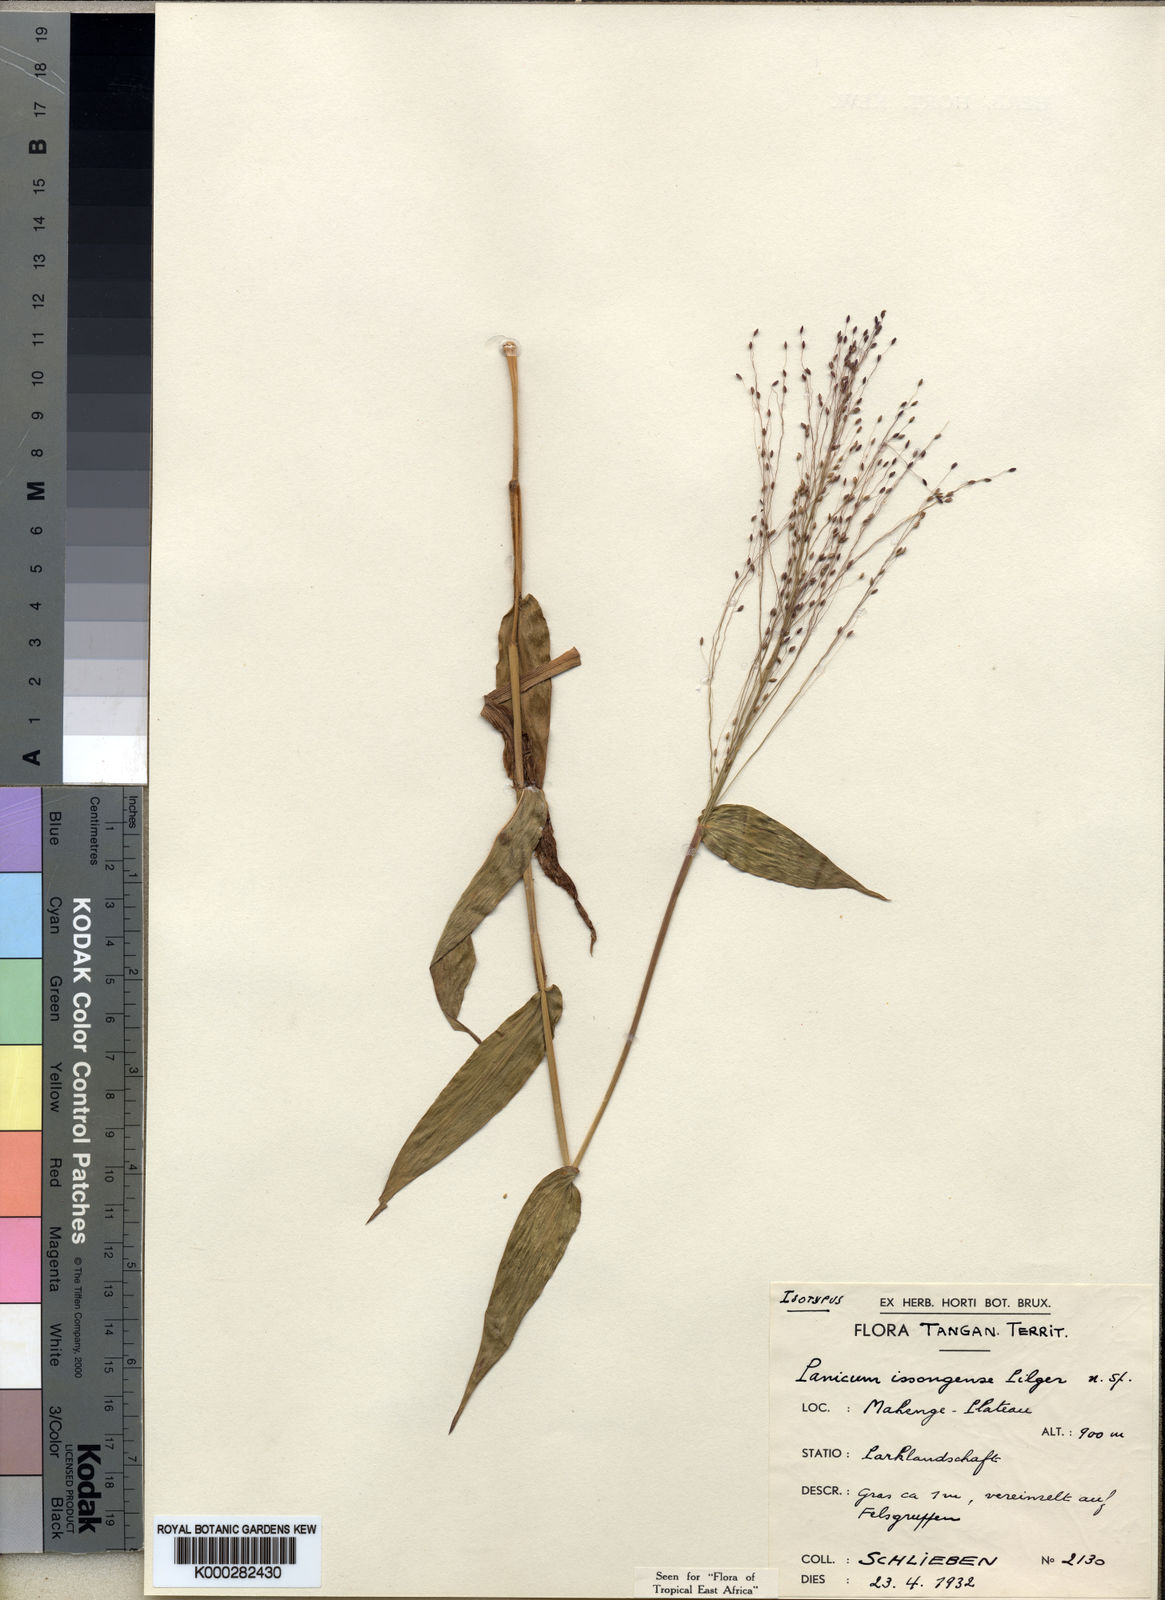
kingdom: Plantae
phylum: Tracheophyta
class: Liliopsida
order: Poales
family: Poaceae
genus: Panicum
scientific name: Panicum issongense
